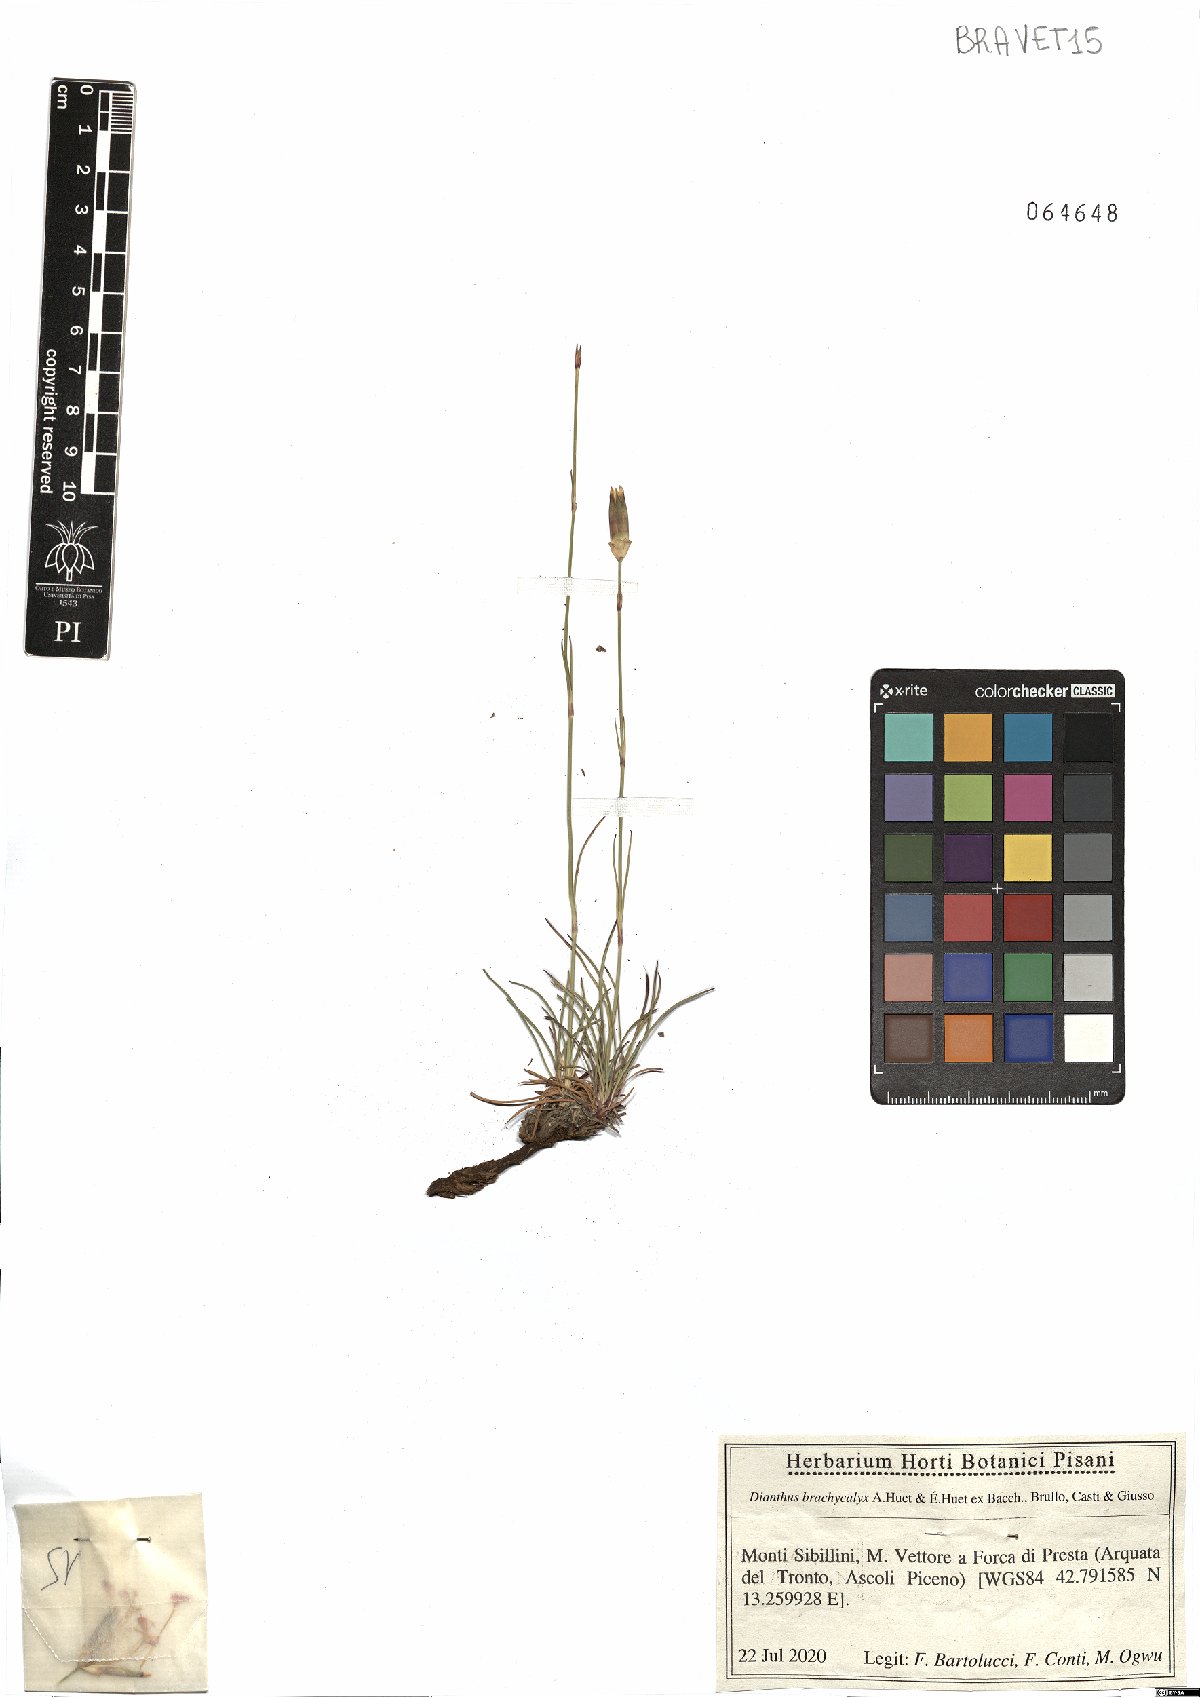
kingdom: Plantae
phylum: Tracheophyta
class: Magnoliopsida
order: Caryophyllales
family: Caryophyllaceae
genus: Dianthus
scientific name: Dianthus brachycalyx
